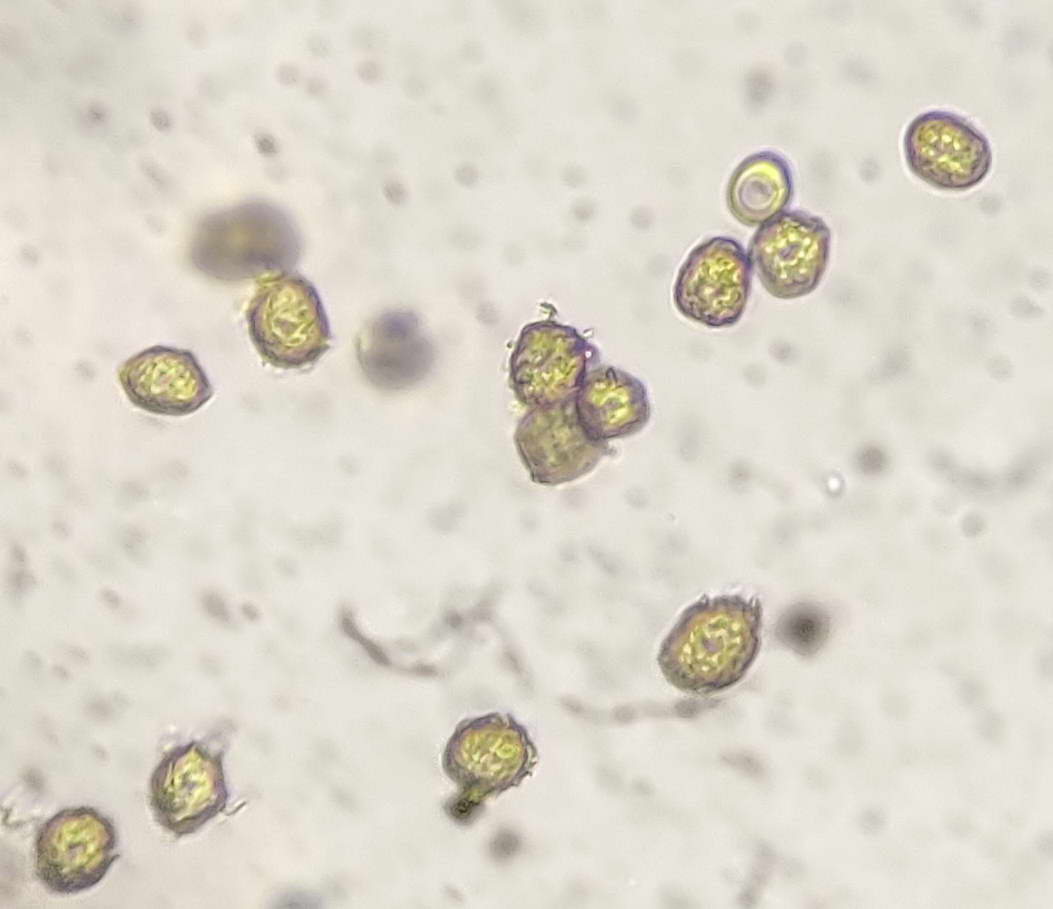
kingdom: Fungi
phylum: Basidiomycota
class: Ustilaginomycetes
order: Urocystidales
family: Urocystidaceae
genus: Vankya
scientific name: Vankya ornithogali
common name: Yellow star-of-bethlehem smut
